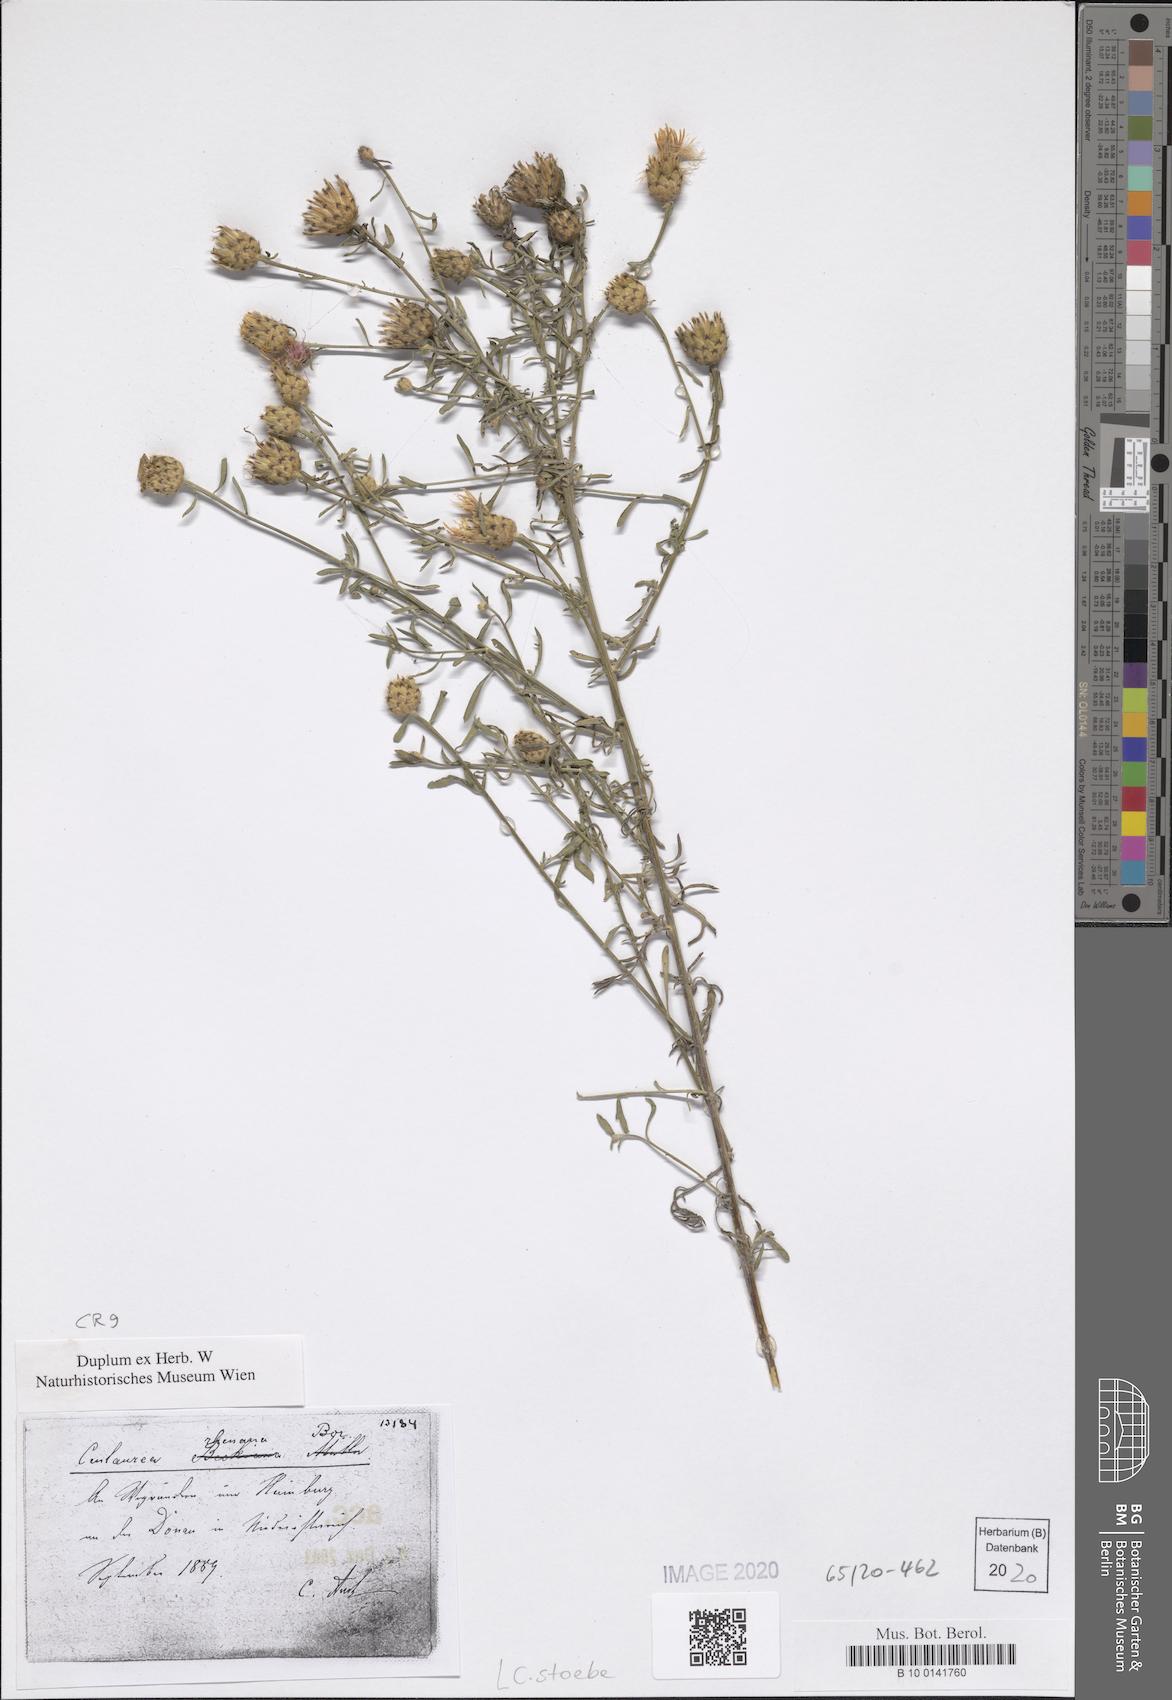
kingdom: Plantae
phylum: Tracheophyta
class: Magnoliopsida
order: Asterales
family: Asteraceae
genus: Centaurea
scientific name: Centaurea stoebe
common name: Spotted knapweed
